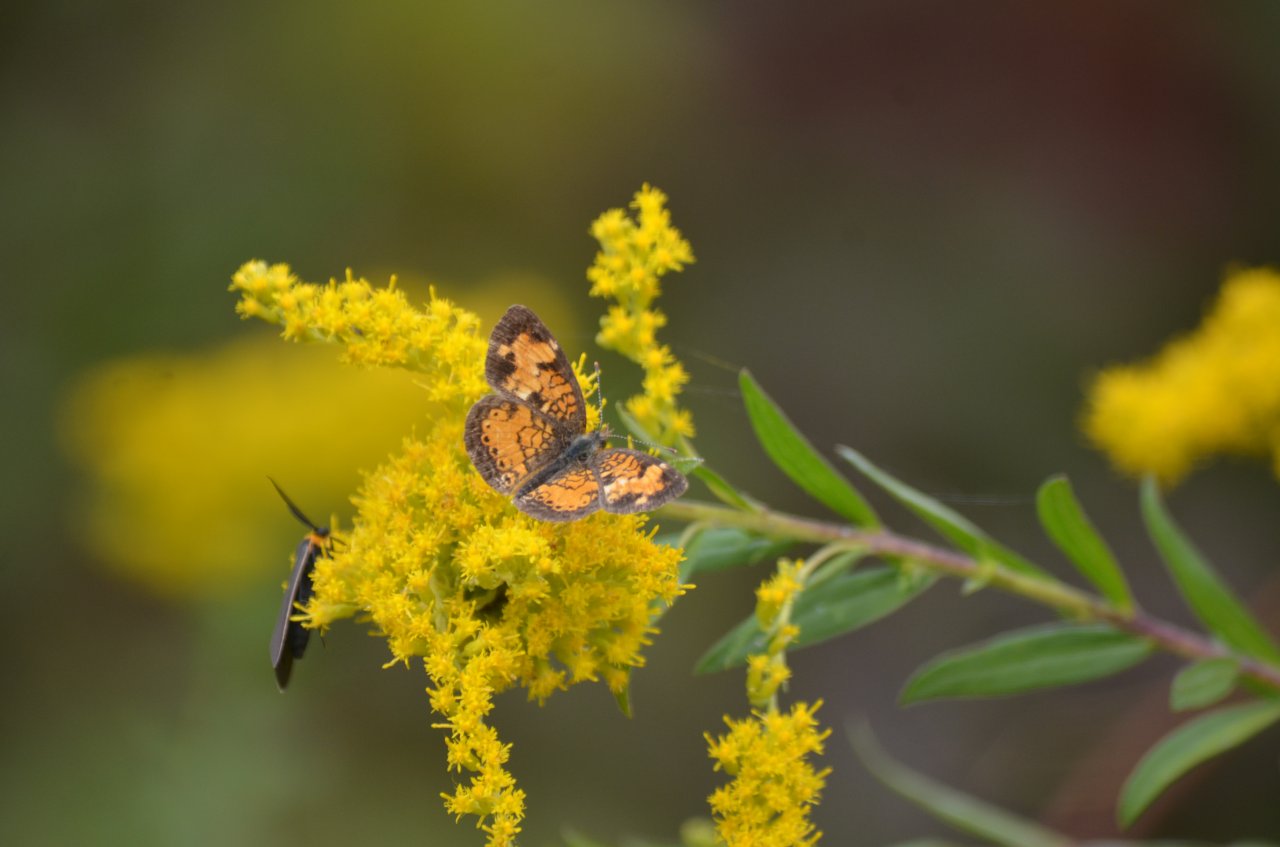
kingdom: Animalia
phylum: Arthropoda
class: Insecta
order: Lepidoptera
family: Nymphalidae
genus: Phyciodes
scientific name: Phyciodes tharos
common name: Northern Crescent
